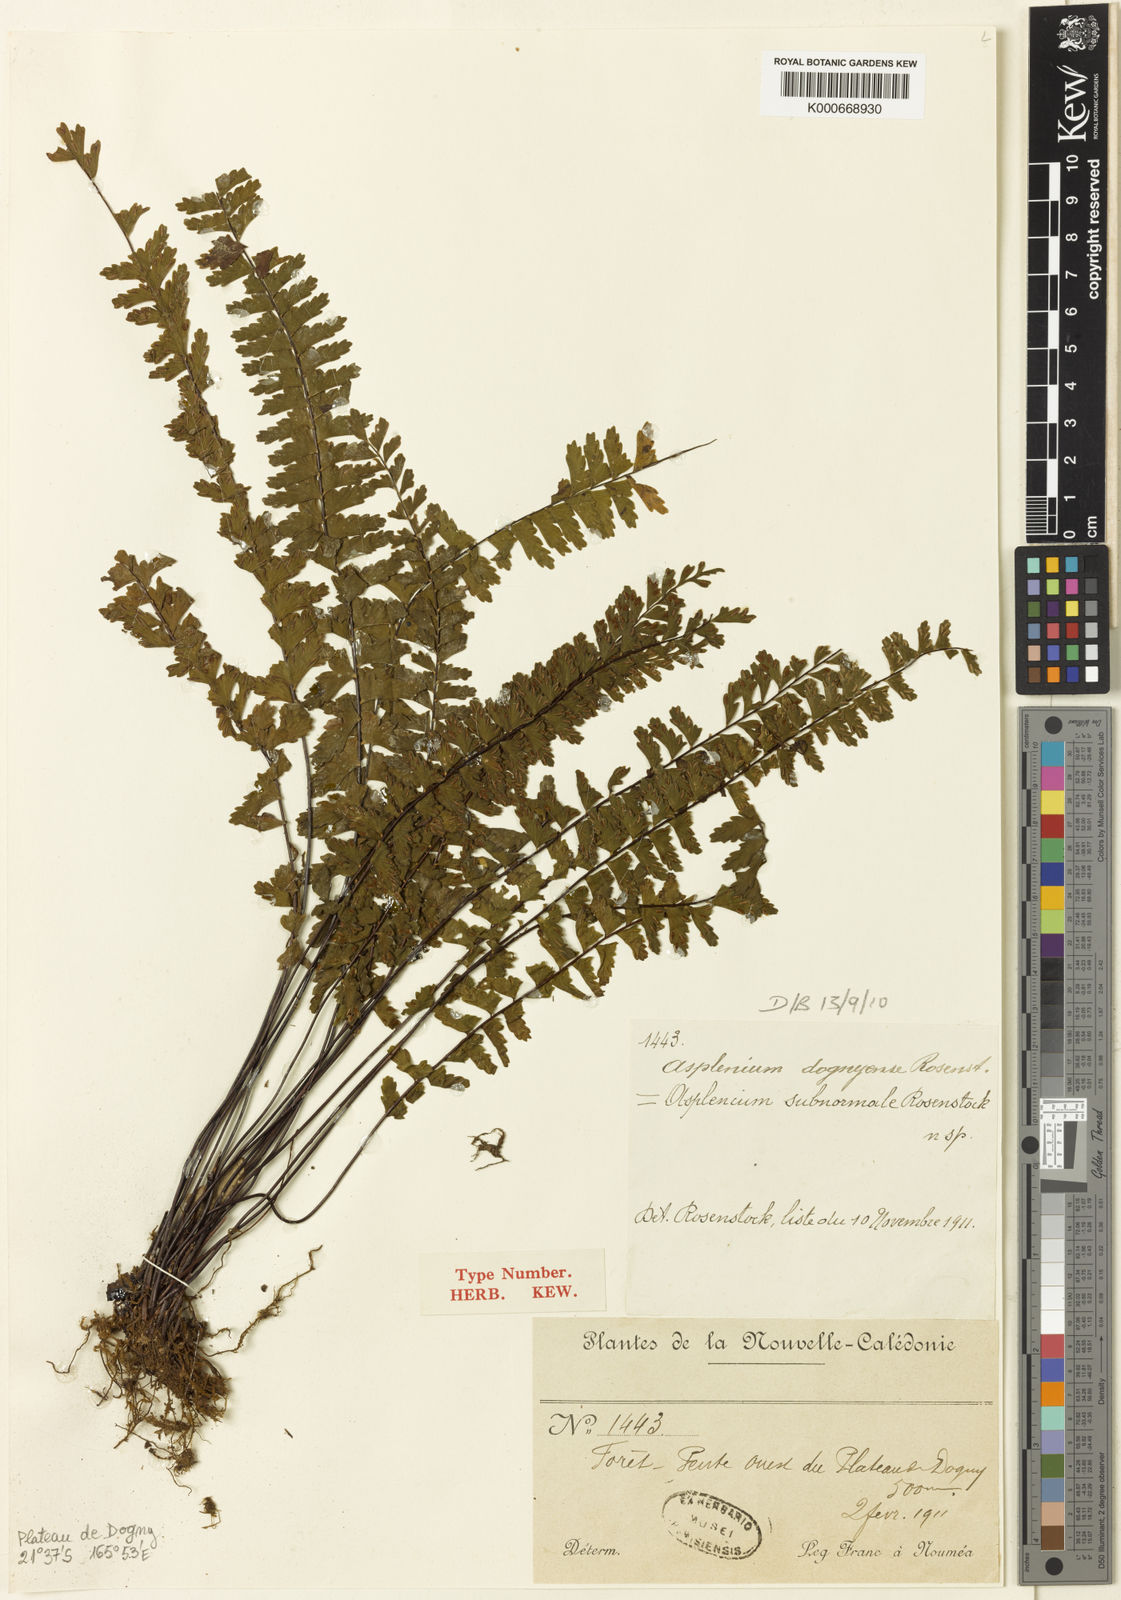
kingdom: Plantae
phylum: Tracheophyta
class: Polypodiopsida
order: Polypodiales
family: Aspleniaceae
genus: Asplenium
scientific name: Asplenium dognyense
